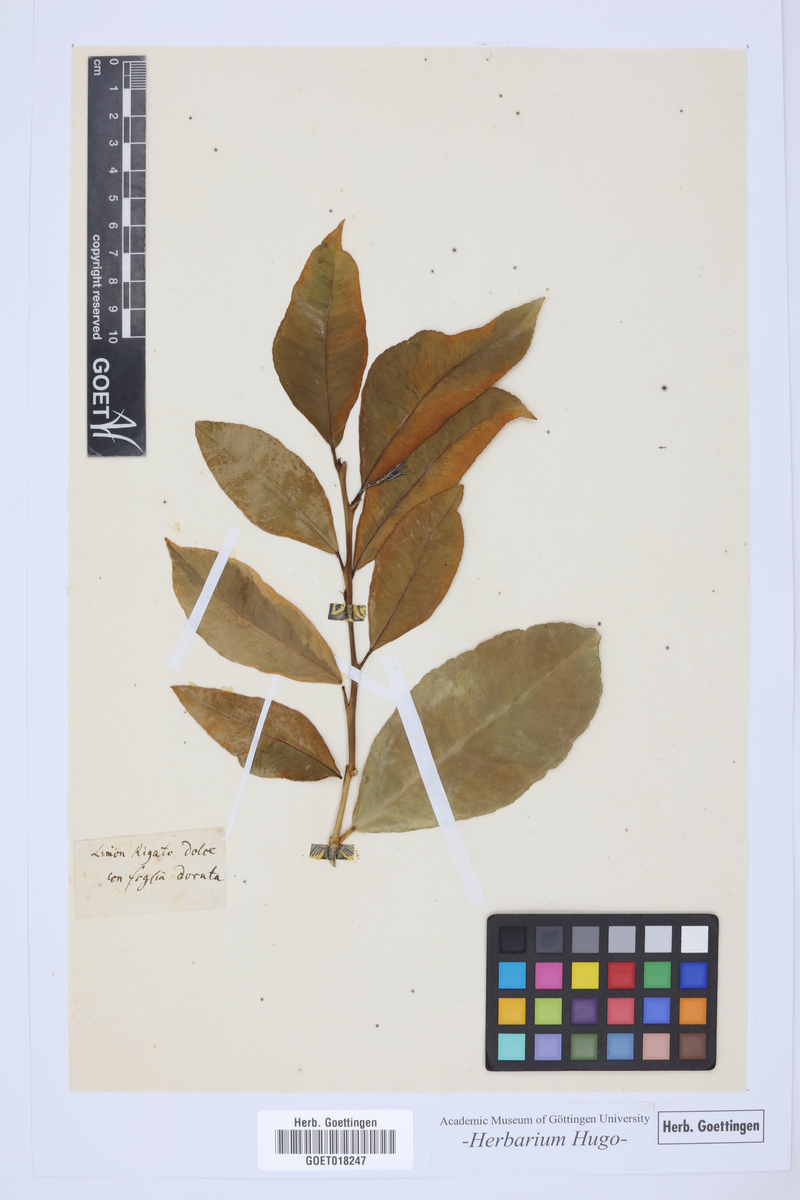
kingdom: Plantae
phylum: Tracheophyta
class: Magnoliopsida
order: Sapindales
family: Rutaceae
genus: Citrus
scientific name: Citrus
